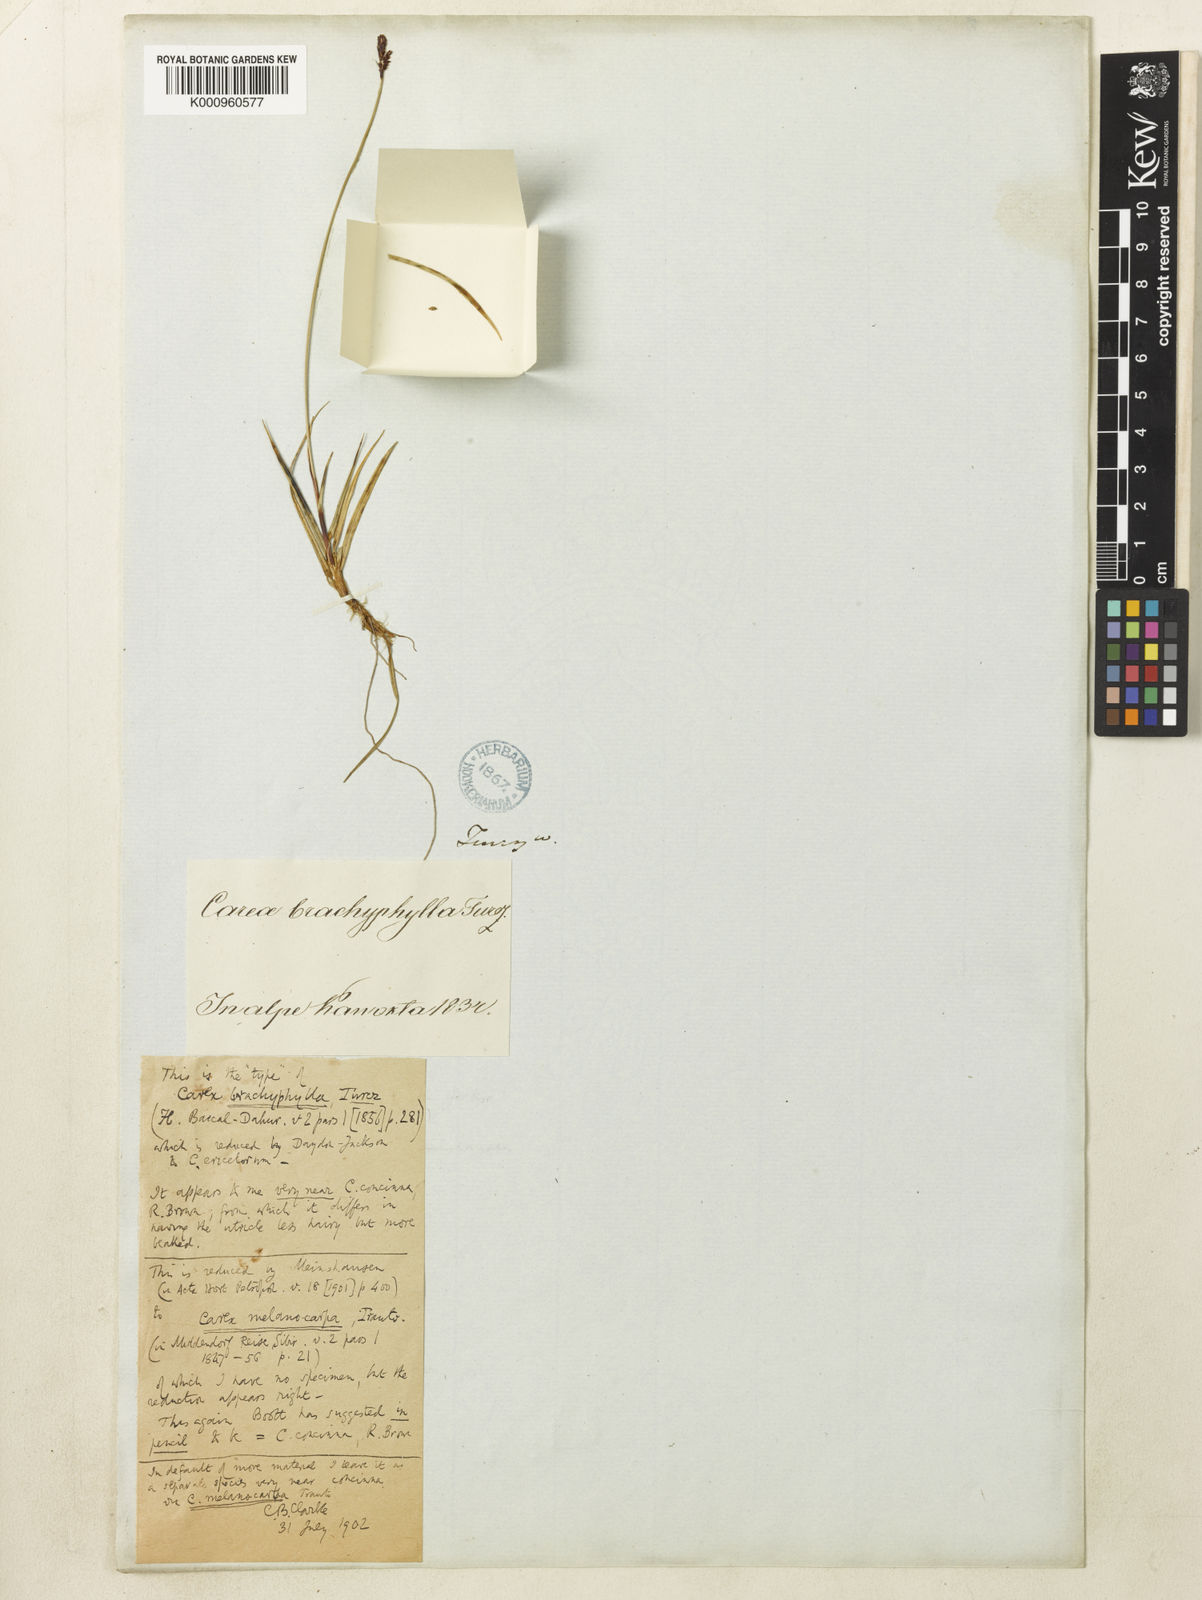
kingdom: Plantae
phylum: Tracheophyta
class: Liliopsida
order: Poales
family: Cyperaceae
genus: Carex
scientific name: Carex ericetorum
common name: Rare spring-sedge
